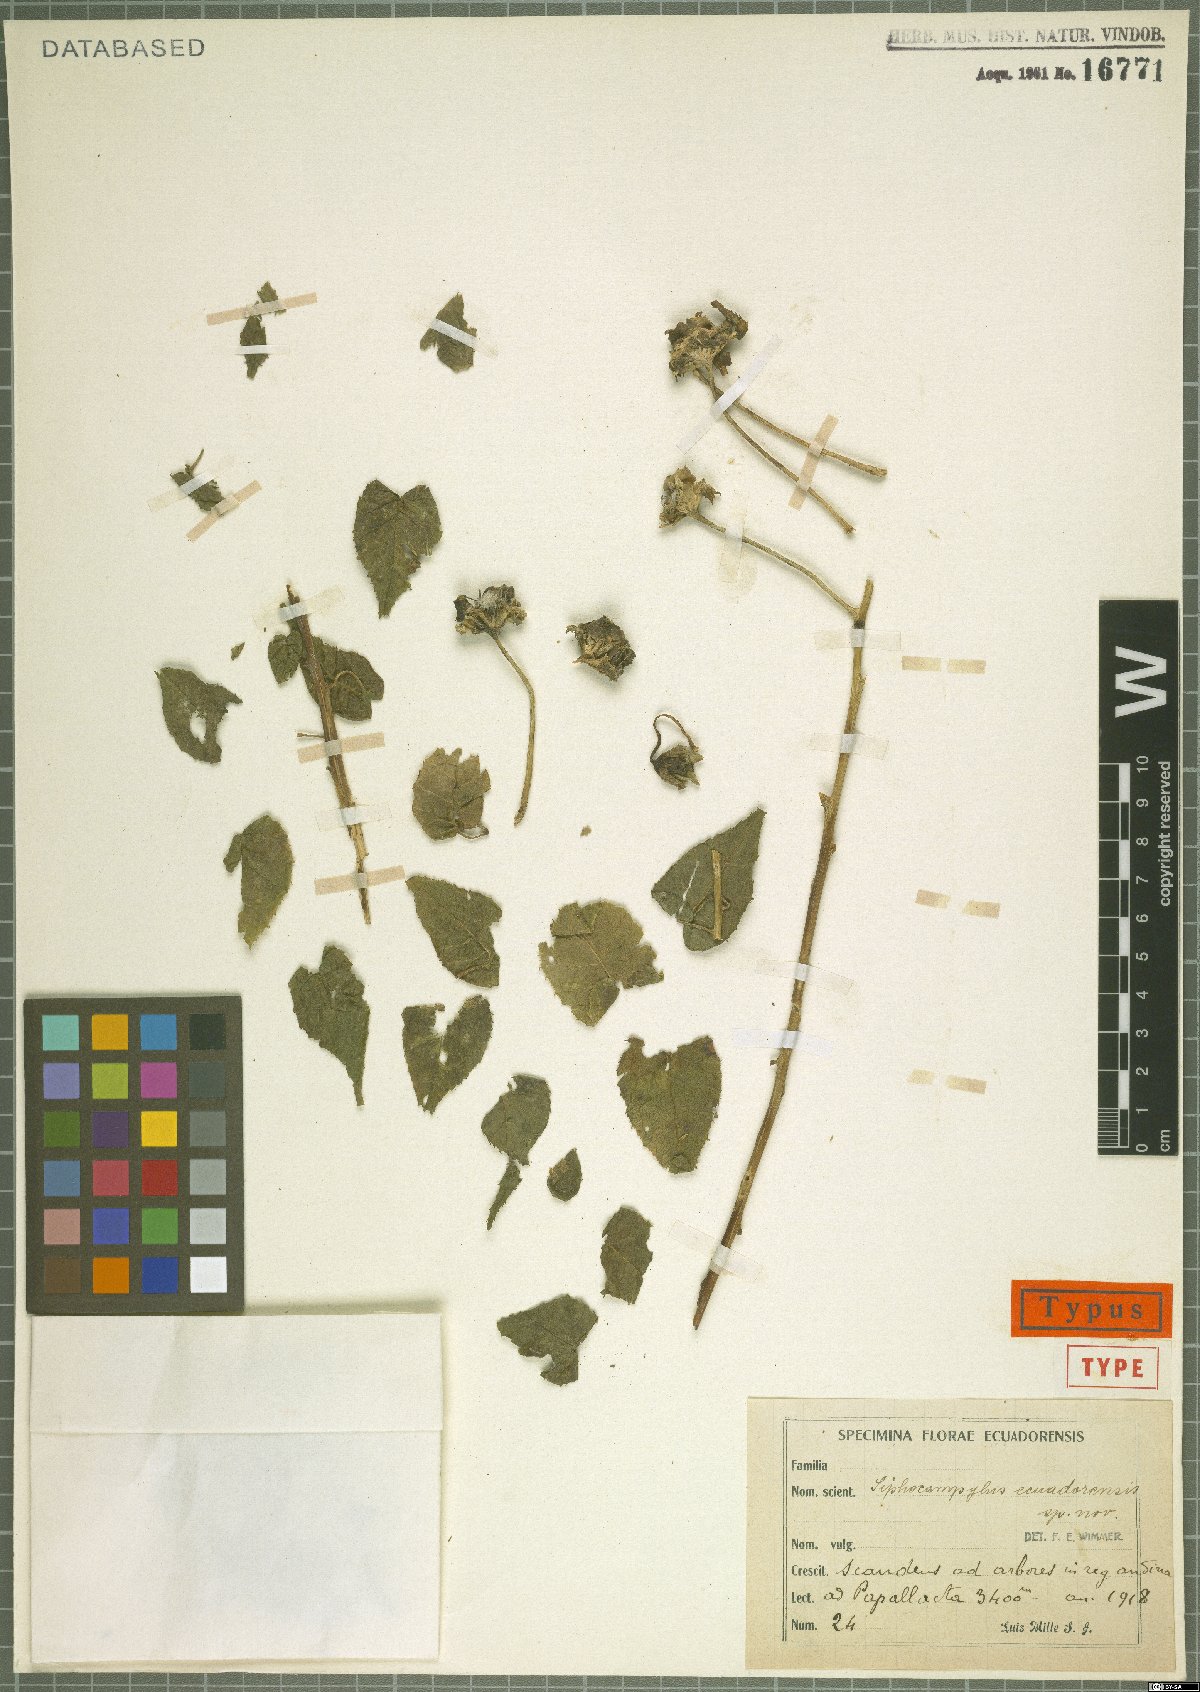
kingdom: Plantae
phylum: Tracheophyta
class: Magnoliopsida
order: Asterales
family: Campanulaceae
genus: Siphocampylus
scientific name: Siphocampylus ecuadorensis
